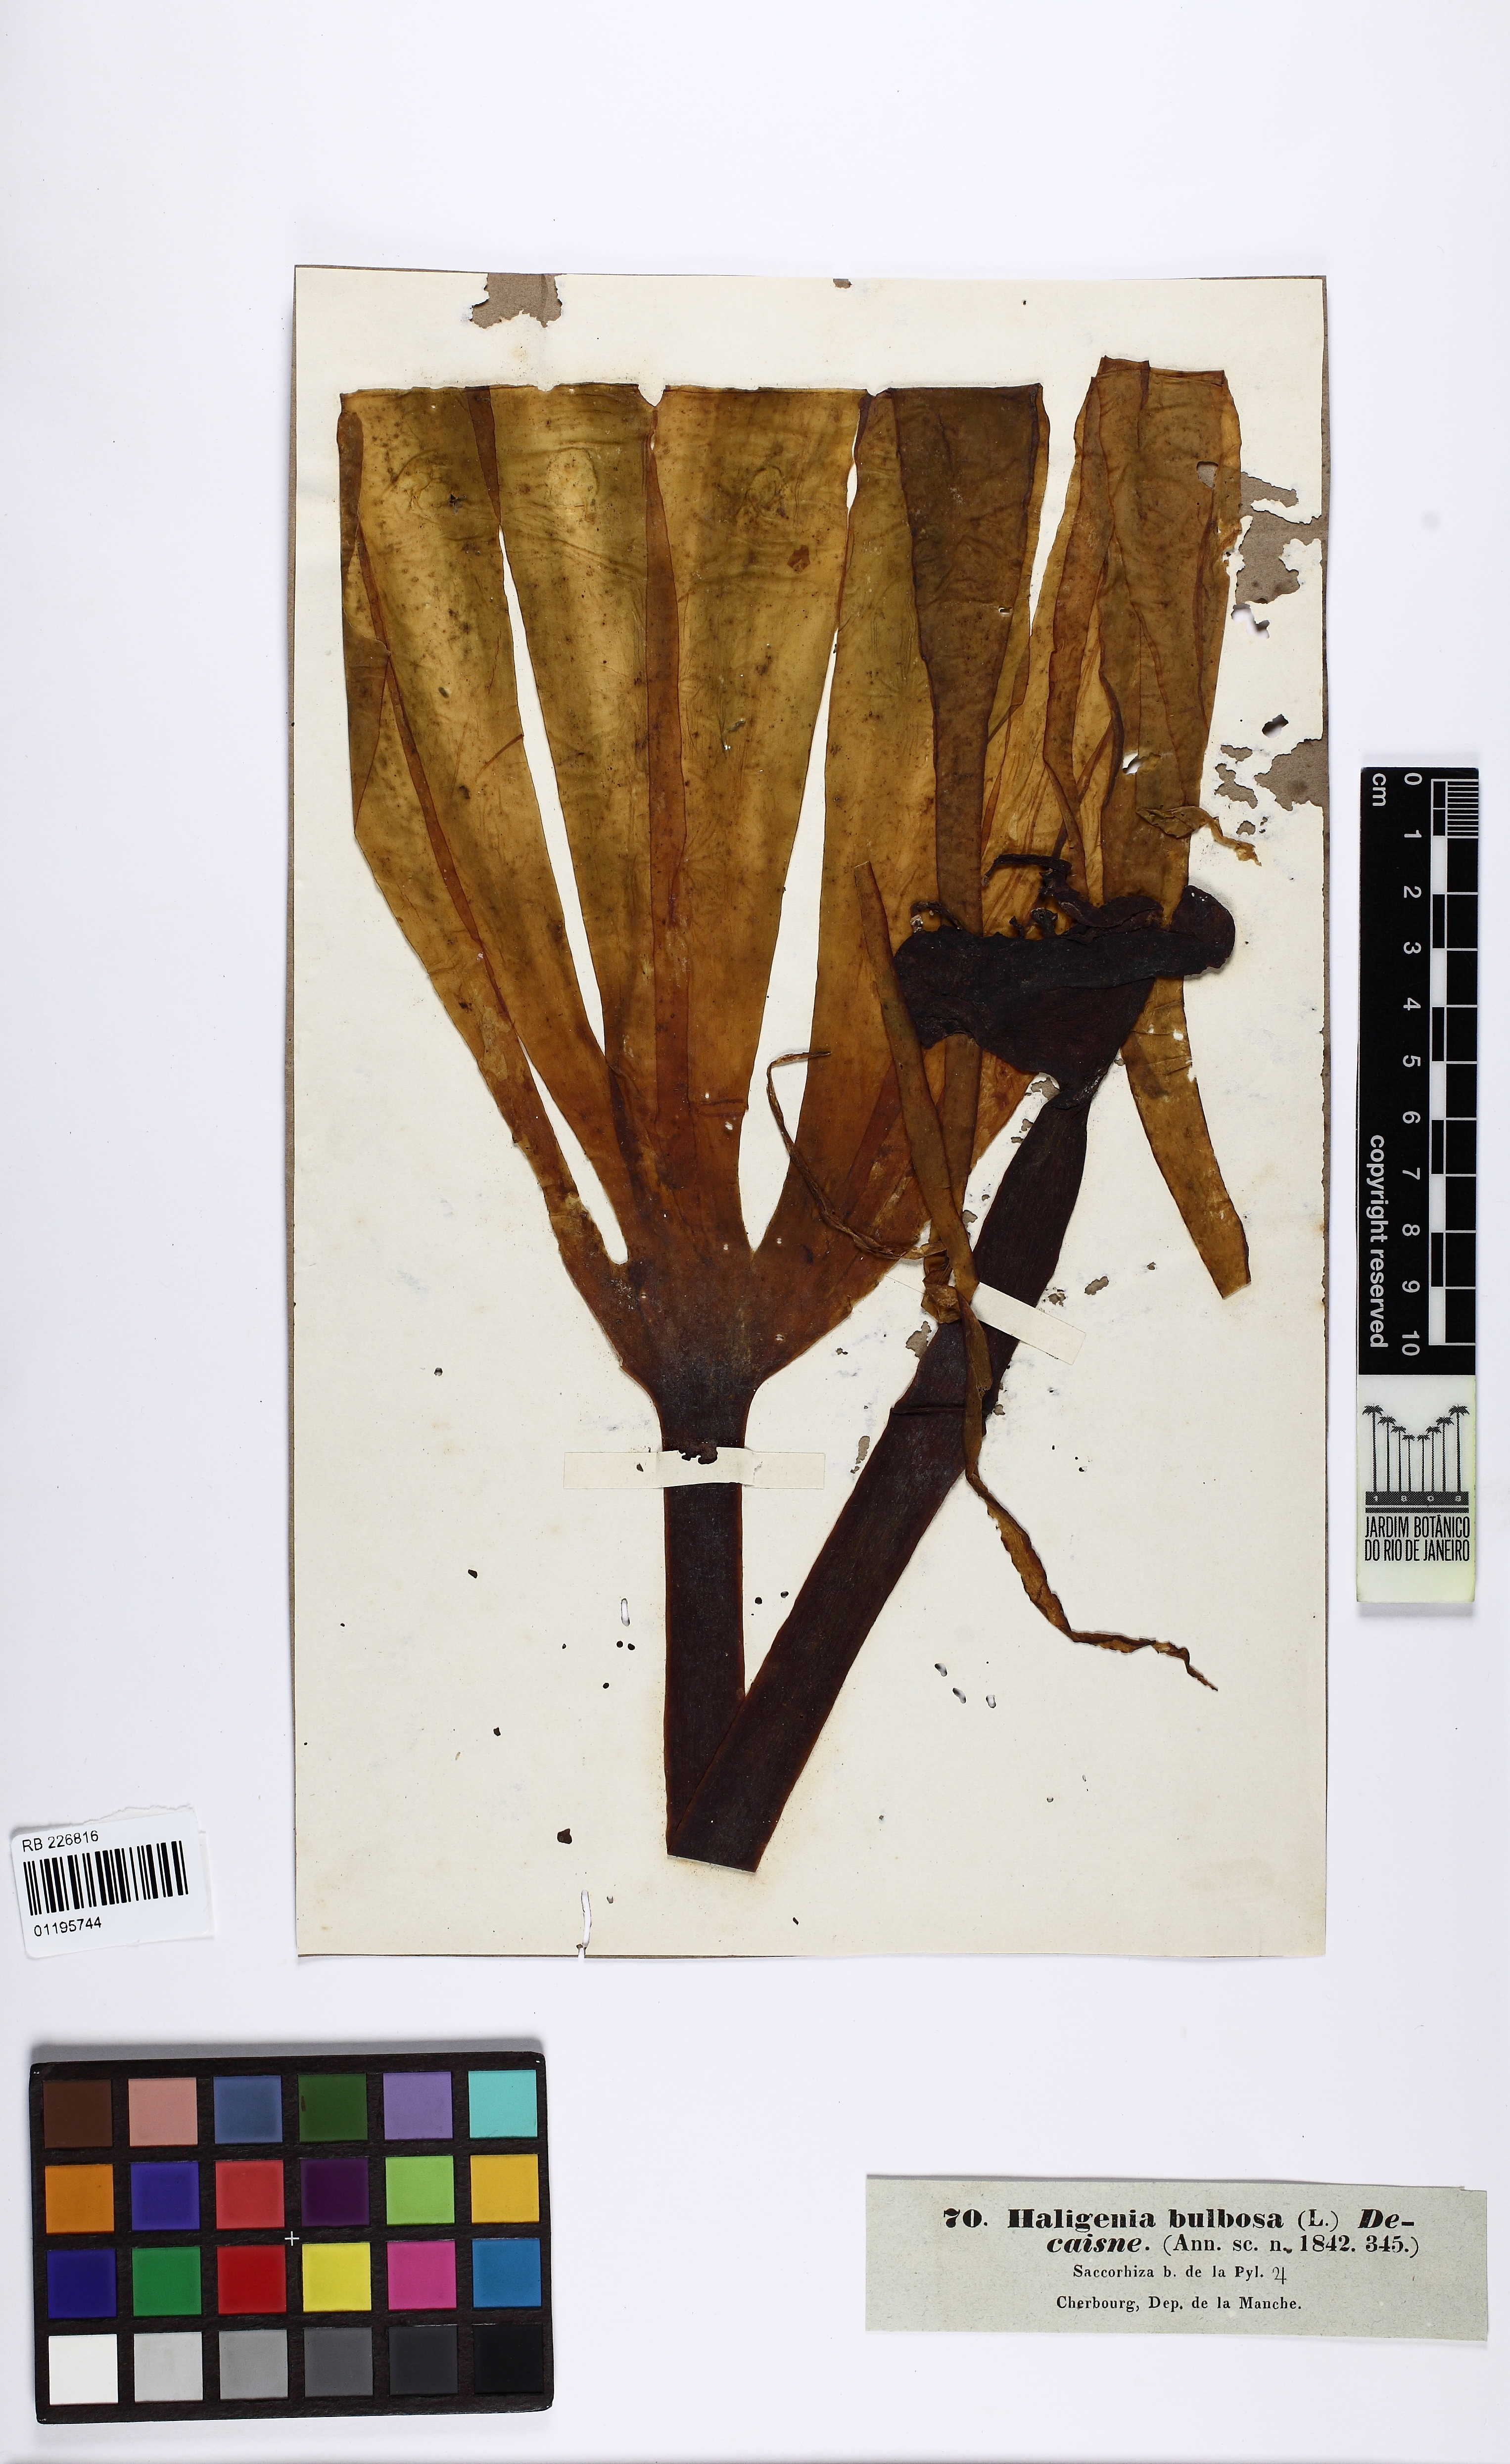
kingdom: Chromista
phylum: Ochrophyta
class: Phaeophyceae
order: Tilopteridales
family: Phyllariaceae
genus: Saccorhiza
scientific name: Saccorhiza polyschides
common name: Furbelows
